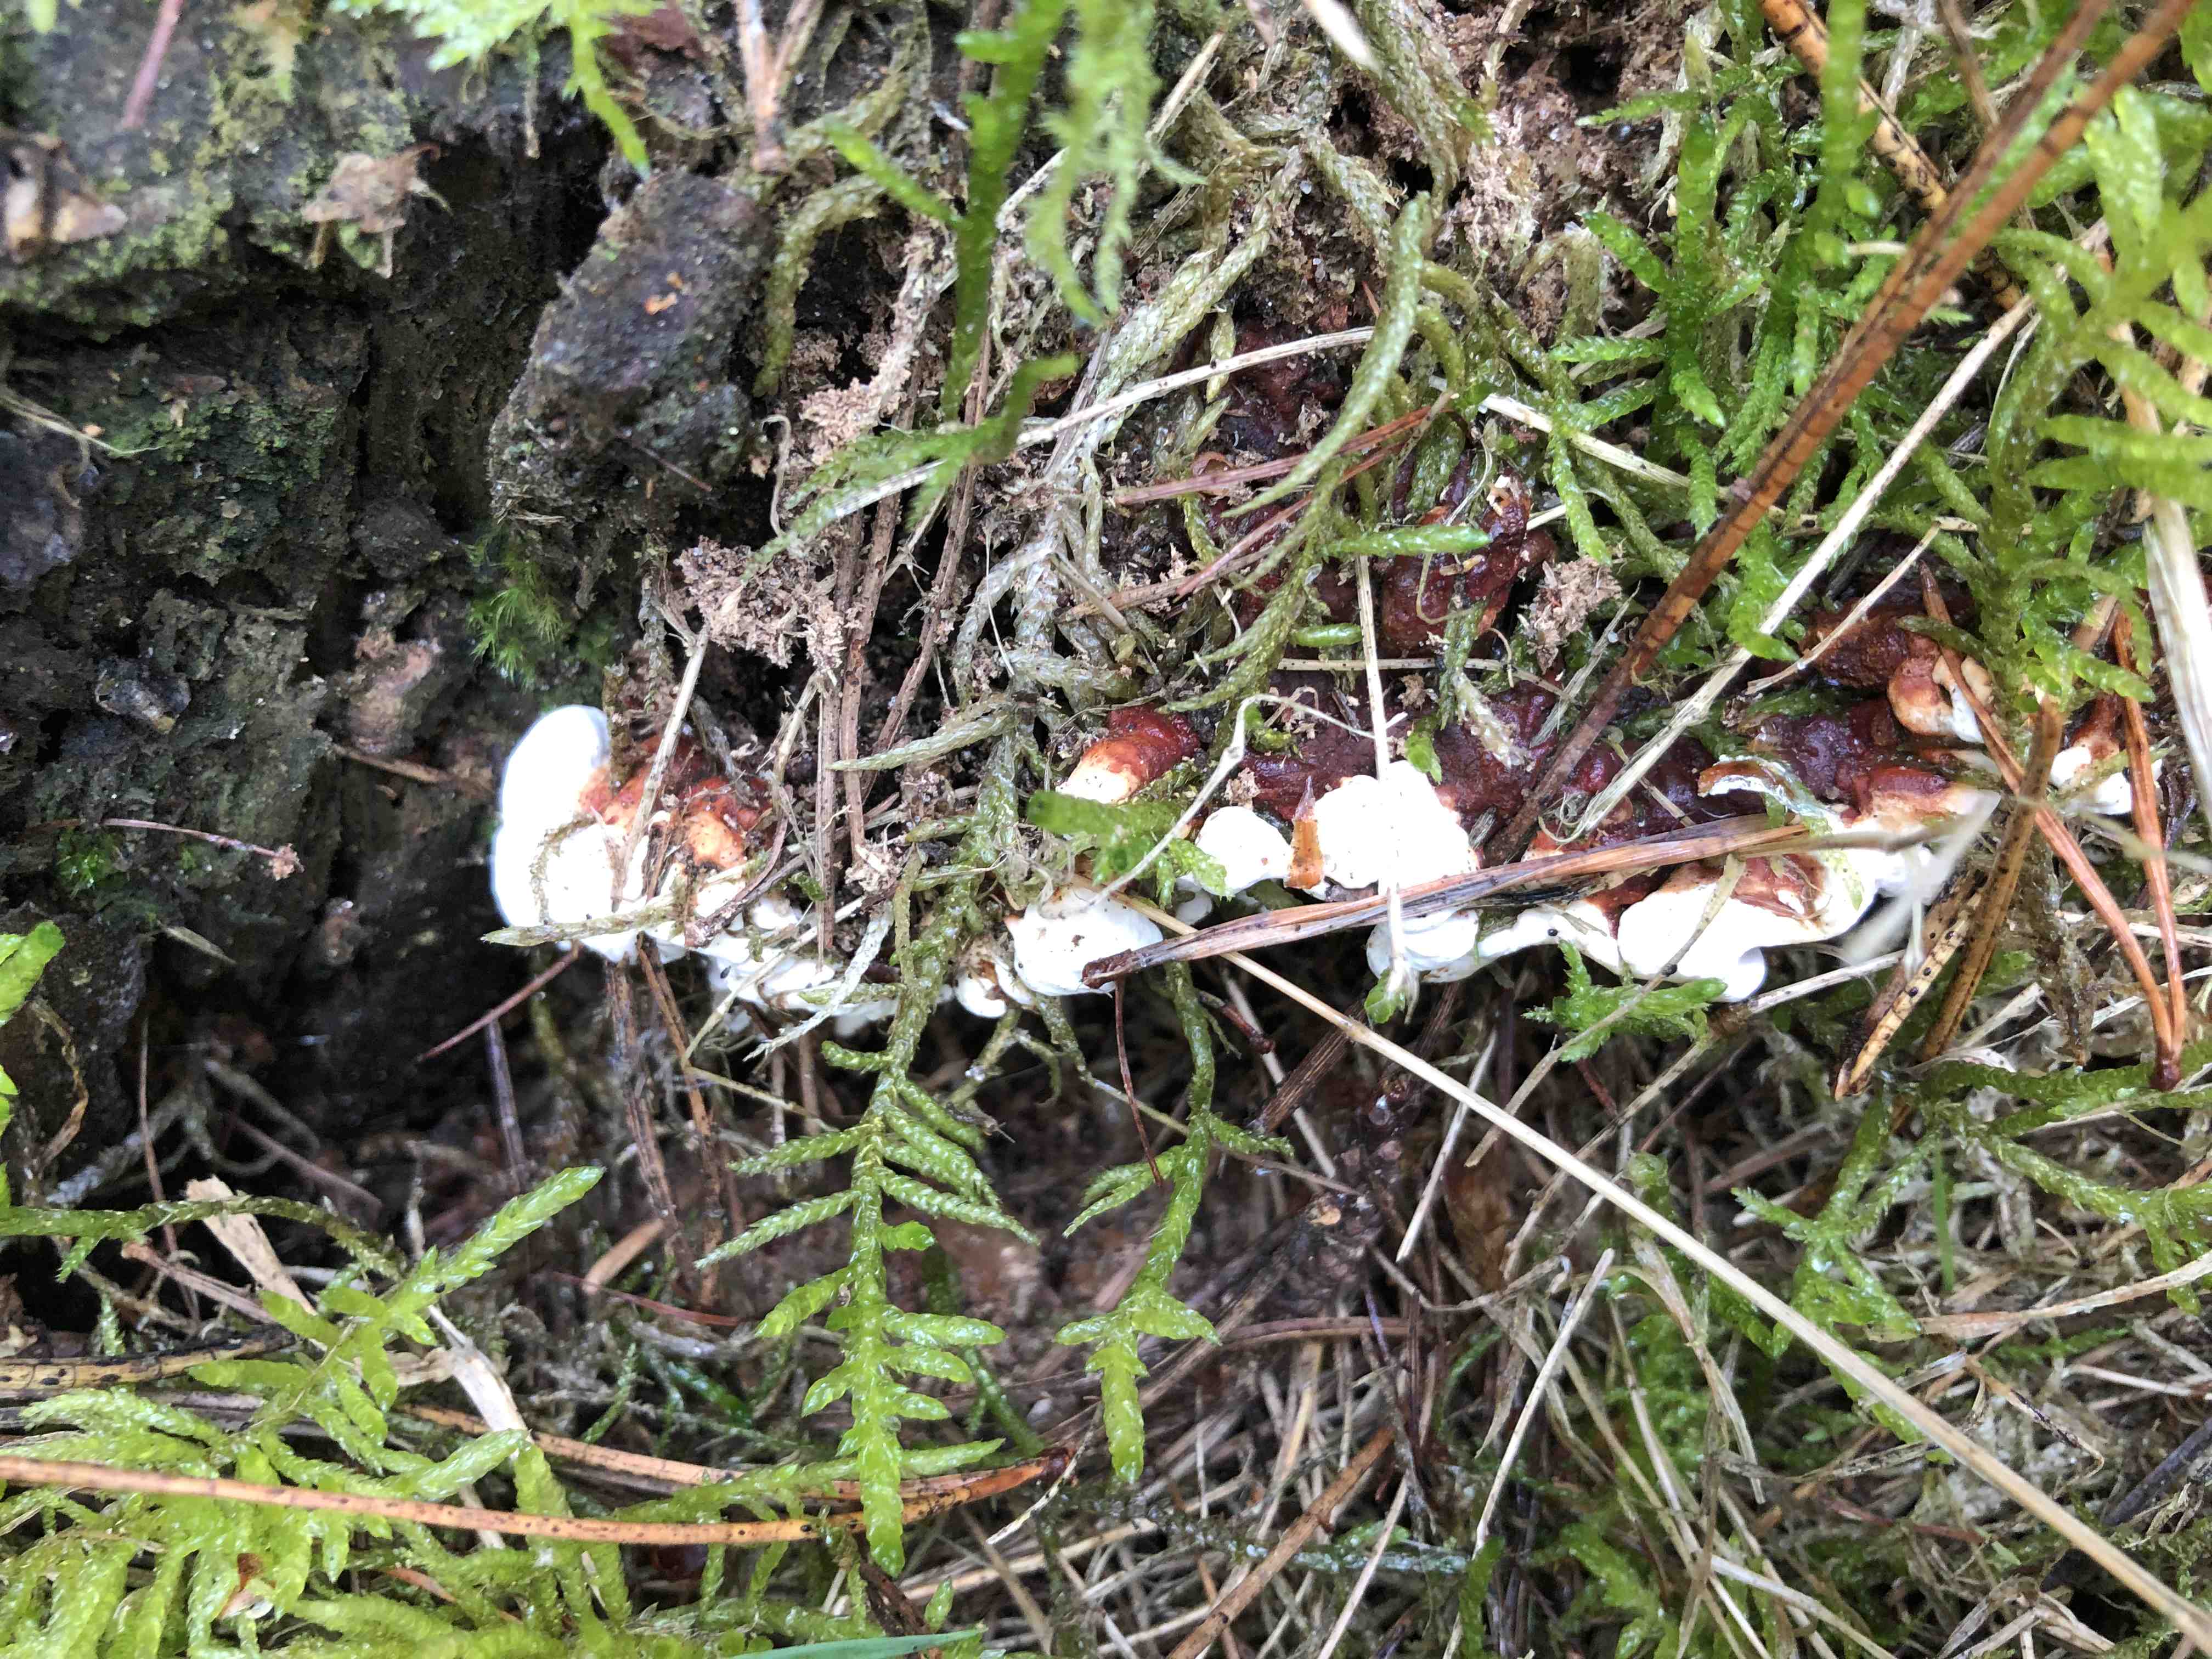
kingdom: Fungi
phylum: Basidiomycota
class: Agaricomycetes
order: Russulales
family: Bondarzewiaceae
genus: Heterobasidion
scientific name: Heterobasidion annosum
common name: almindelig rodfordærver
